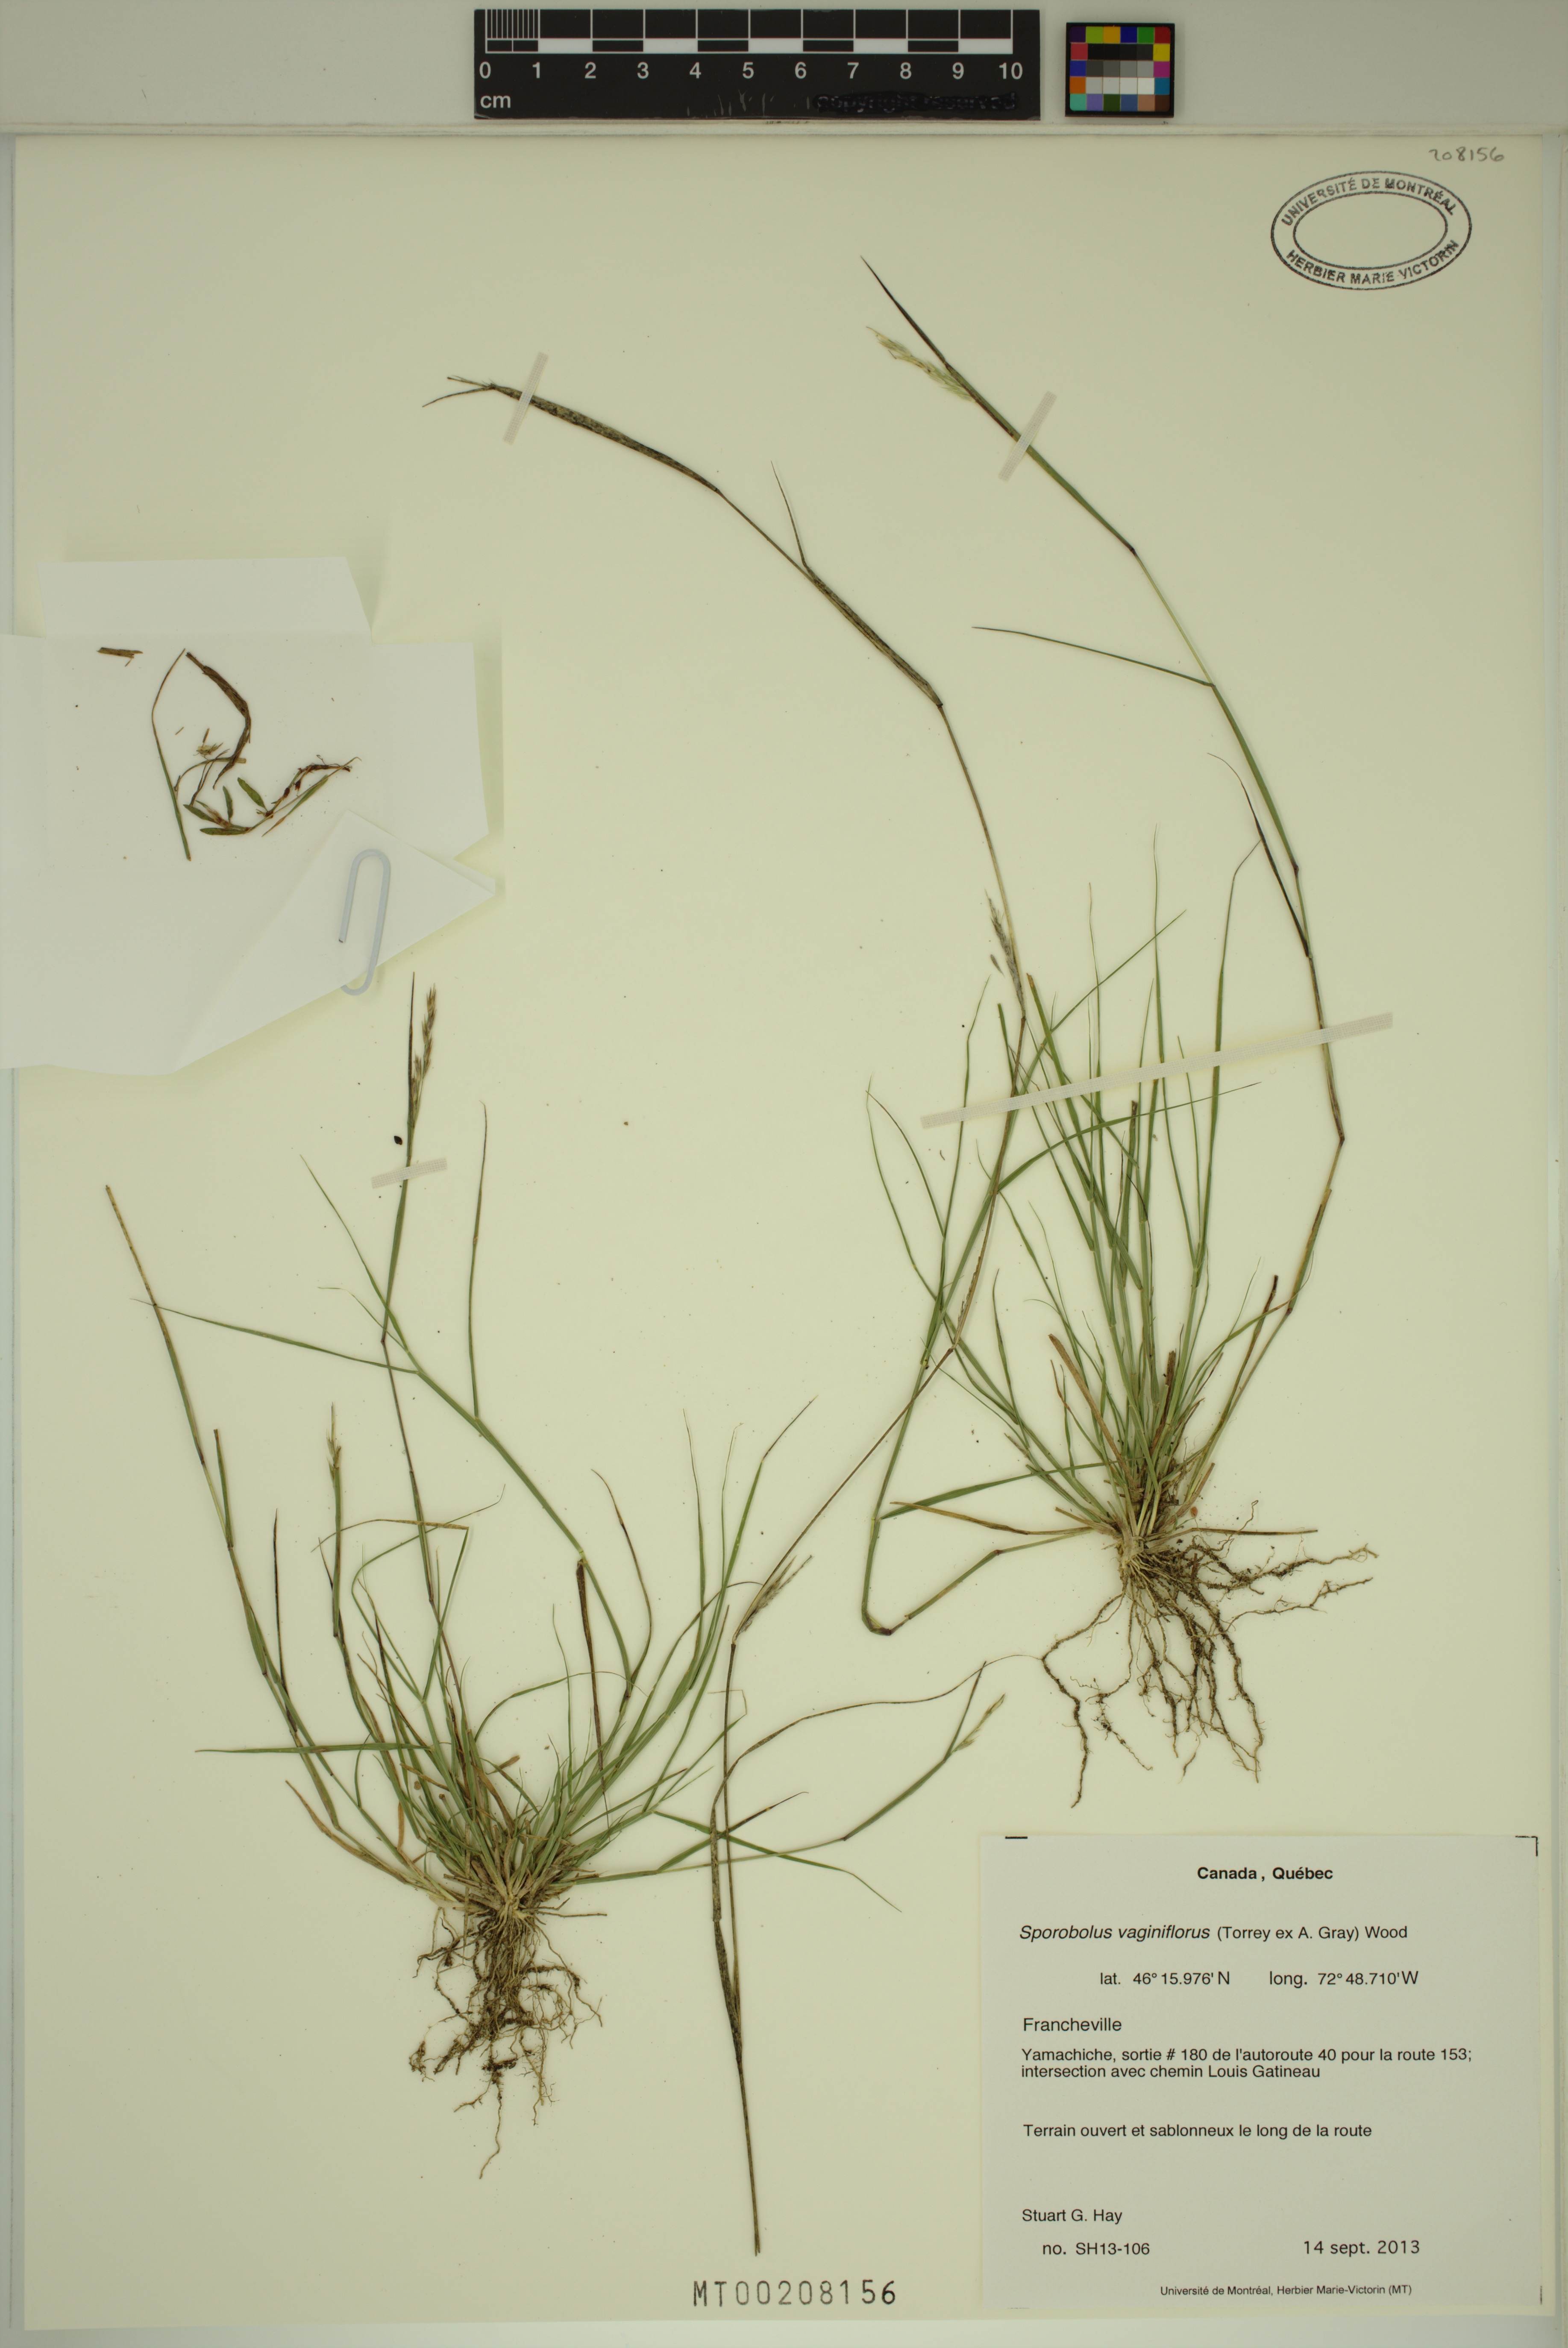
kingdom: Plantae
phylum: Tracheophyta
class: Liliopsida
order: Poales
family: Poaceae
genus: Sporobolus
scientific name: Sporobolus vaginiflorus
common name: Poverty dropseed
